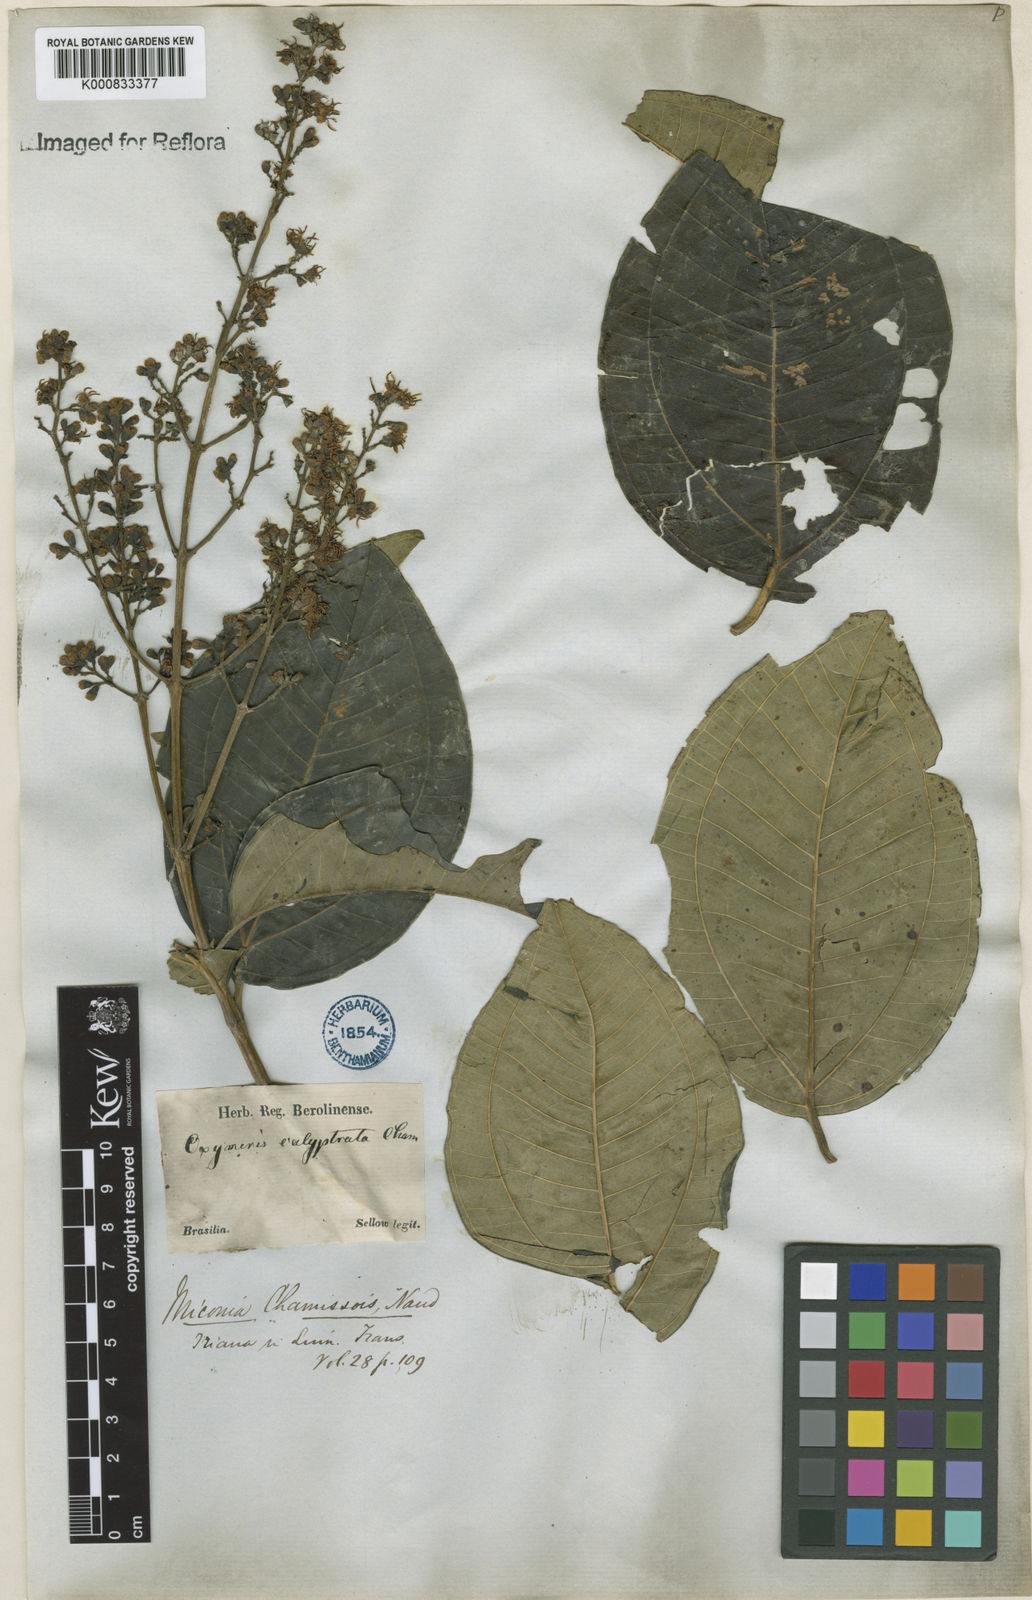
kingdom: Plantae
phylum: Tracheophyta
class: Magnoliopsida
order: Myrtales
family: Melastomataceae
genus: Miconia
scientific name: Miconia chamissois
